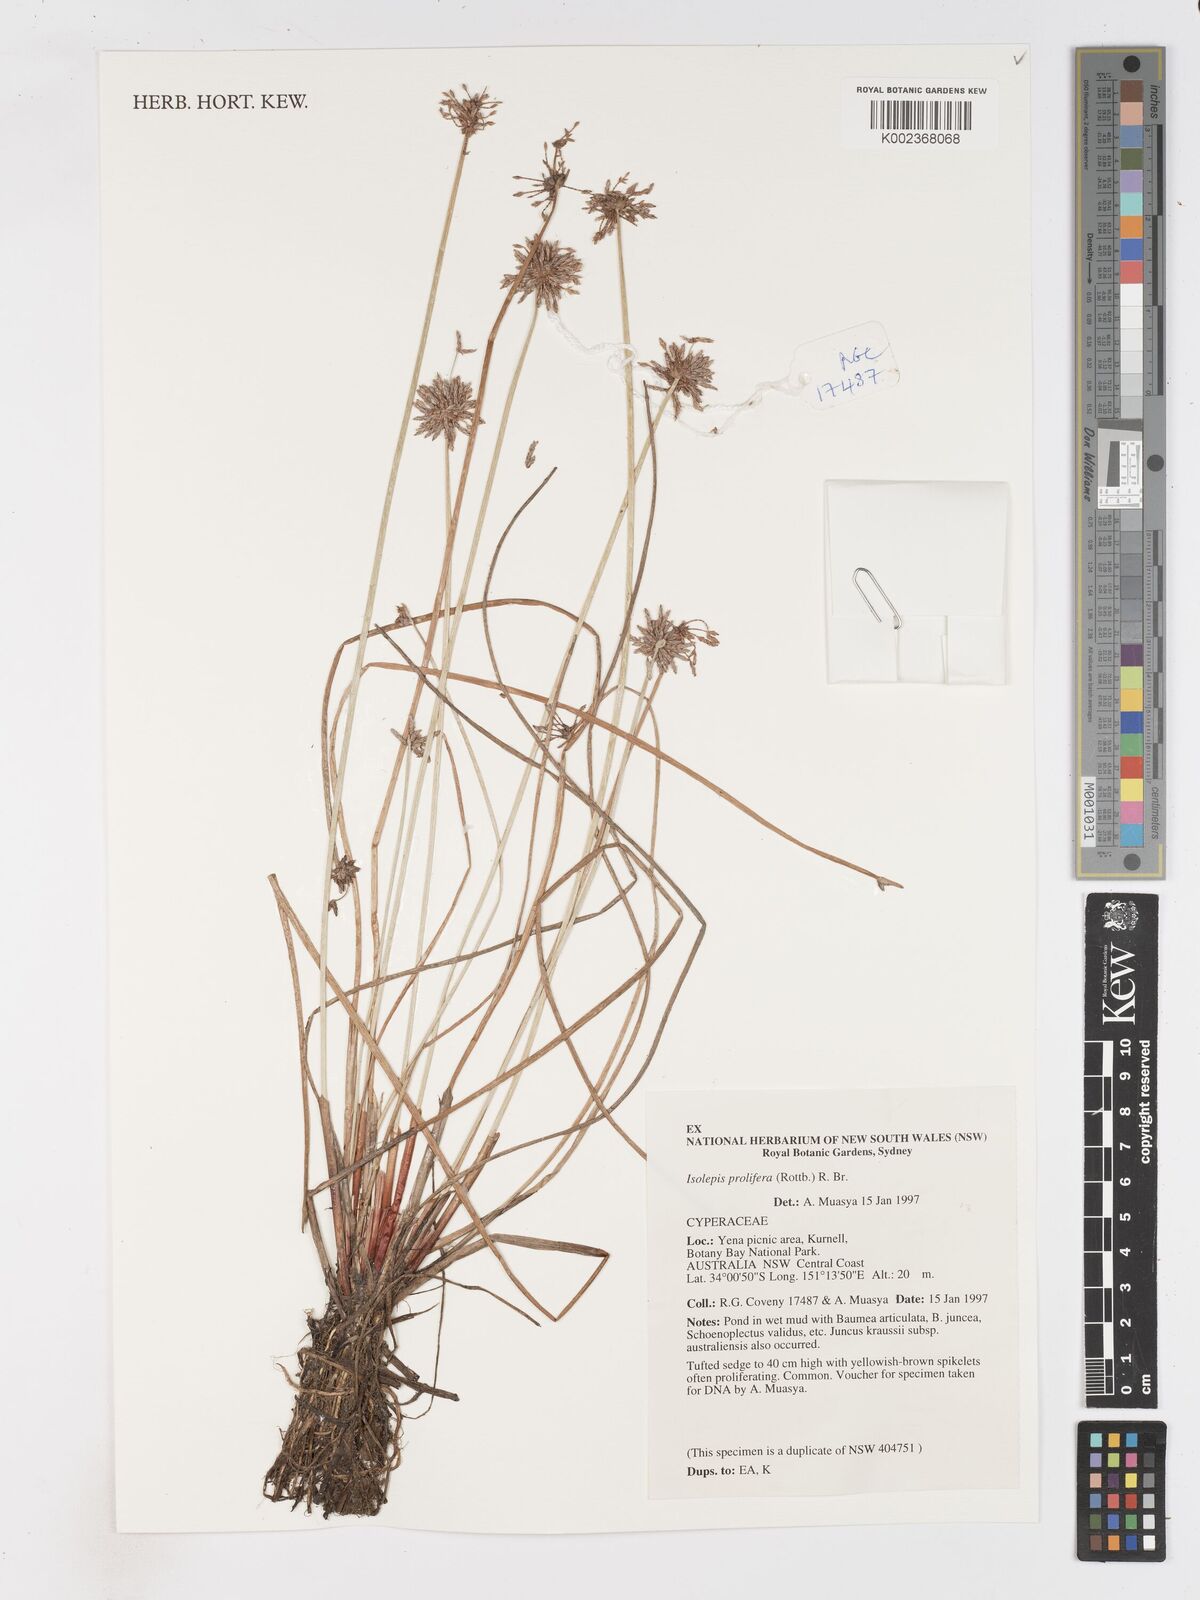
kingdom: Plantae
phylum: Tracheophyta
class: Liliopsida
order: Poales
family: Cyperaceae
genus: Isolepis
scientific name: Isolepis prolifera
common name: Proliferating bulrush
